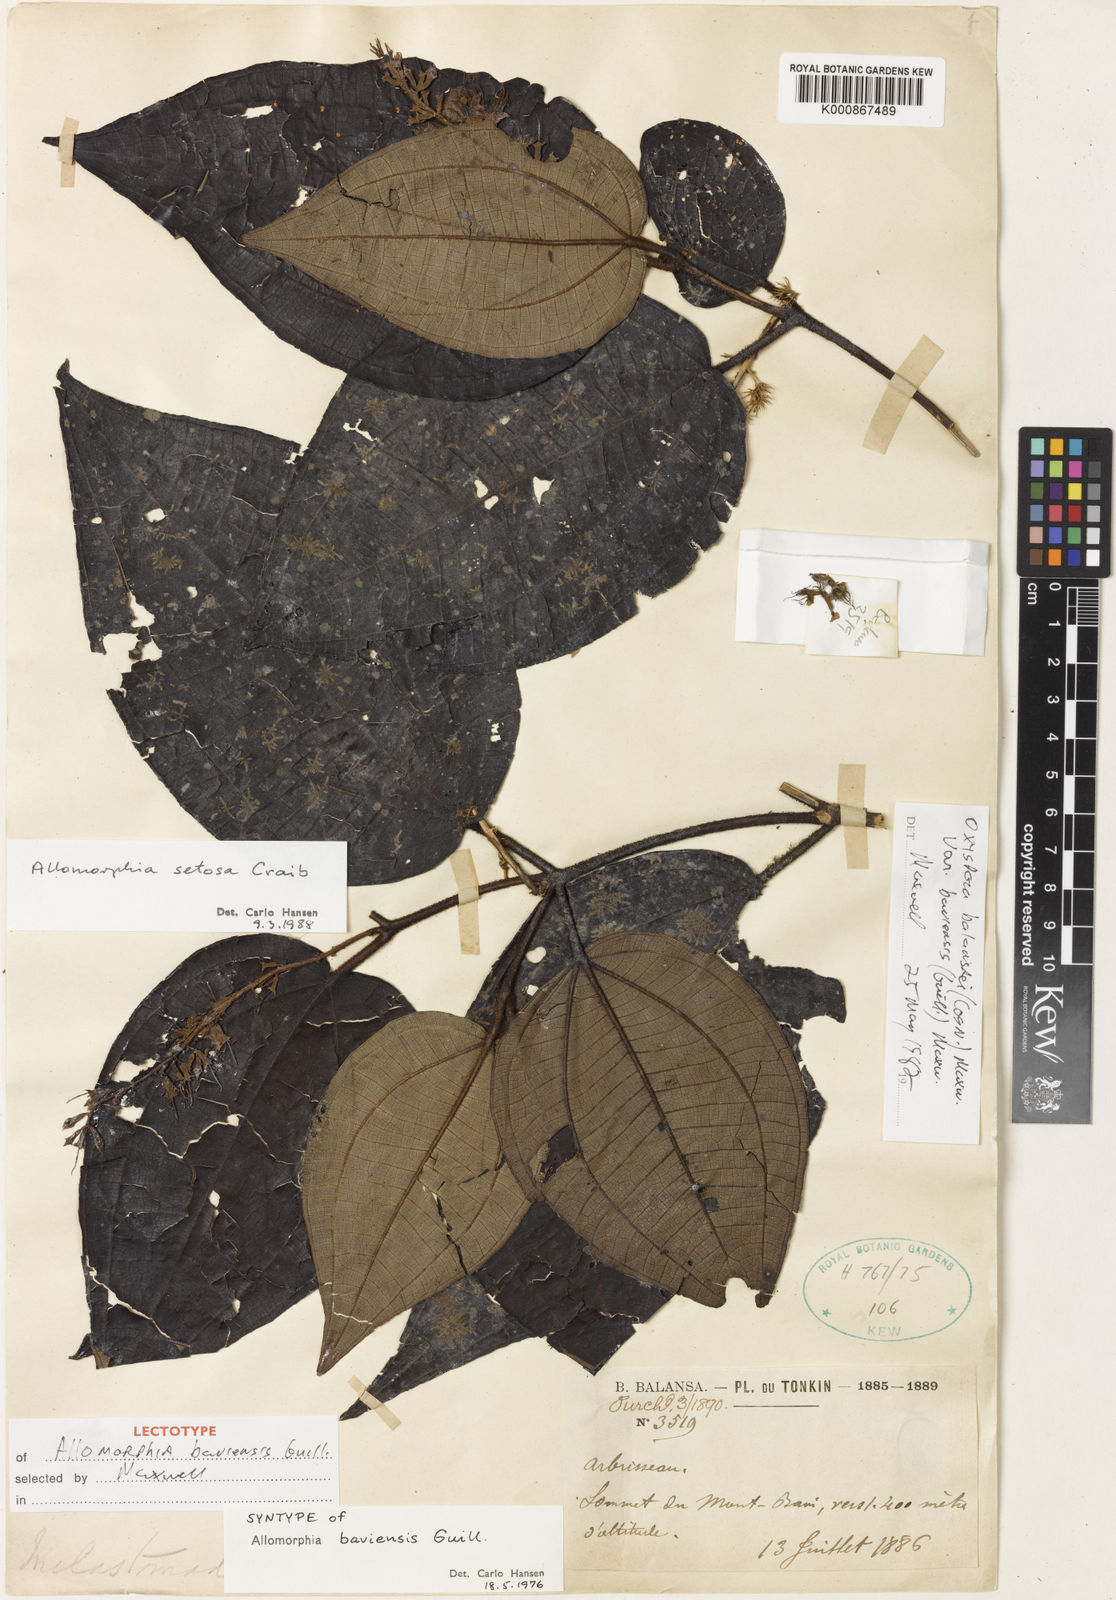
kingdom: Plantae
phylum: Tracheophyta
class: Magnoliopsida
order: Myrtales
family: Melastomataceae
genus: Allomorphia
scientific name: Allomorphia baviensis
